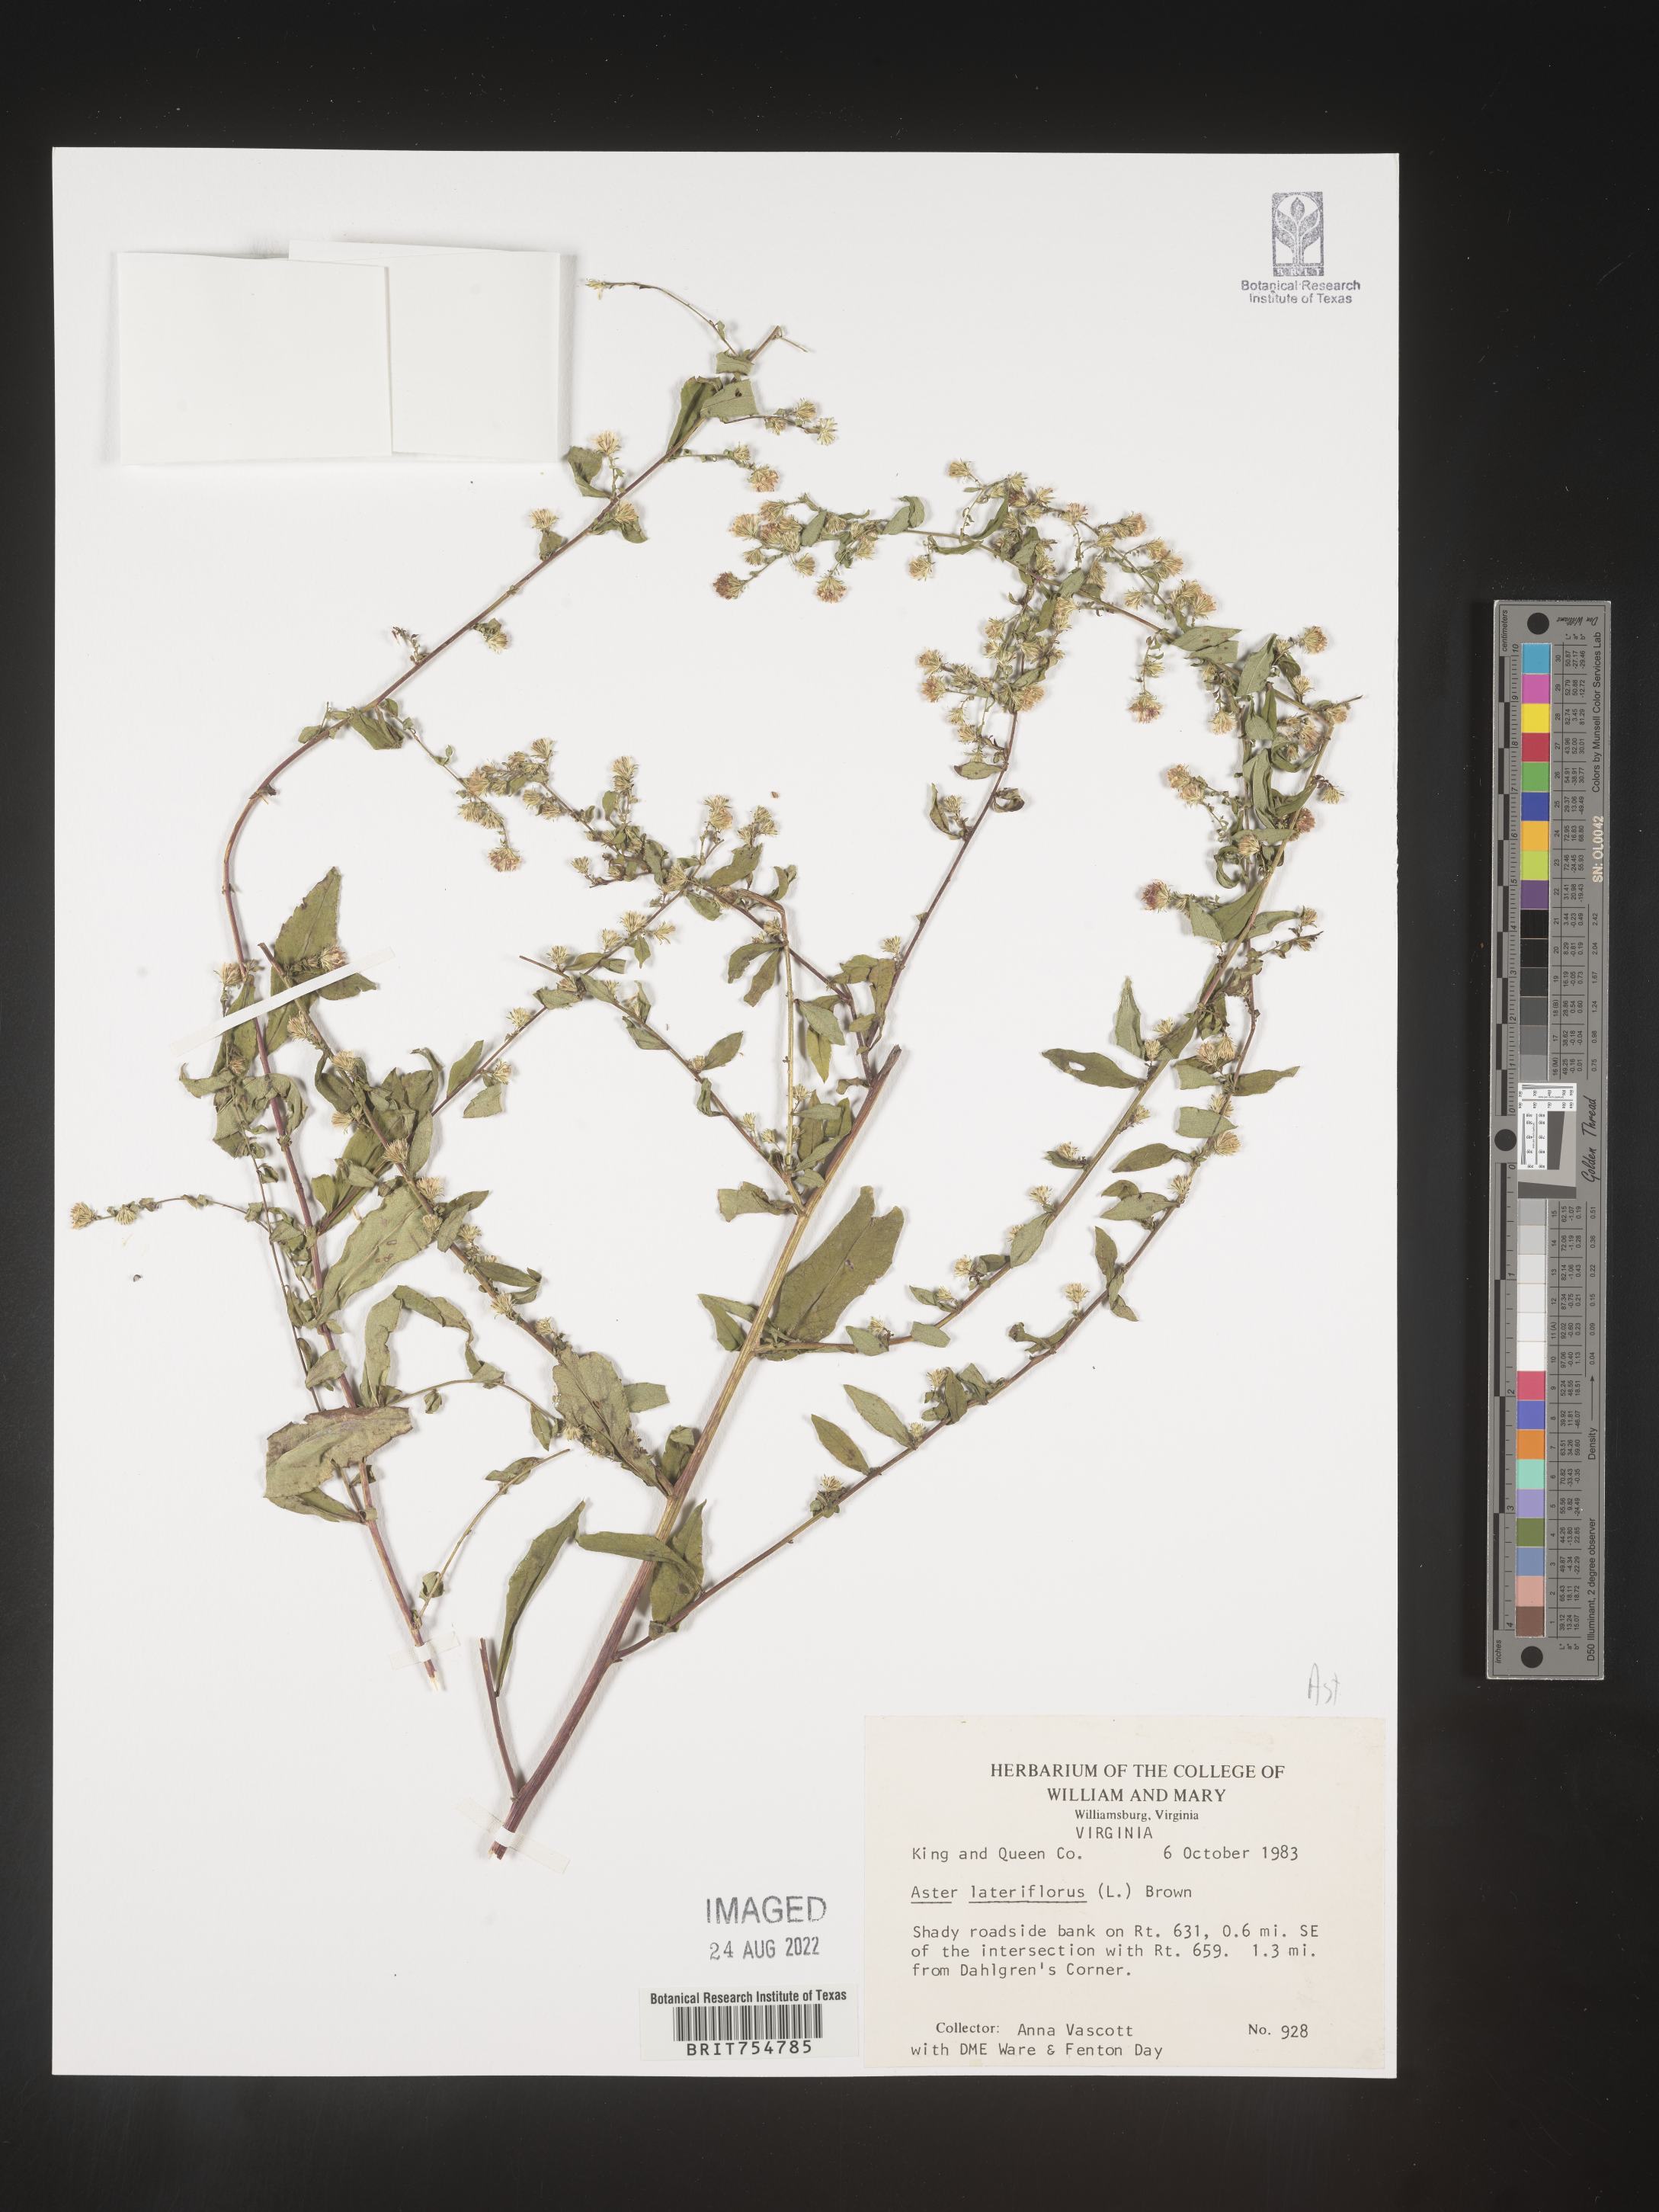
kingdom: Plantae
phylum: Tracheophyta
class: Magnoliopsida
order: Asterales
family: Asteraceae
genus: Symphyotrichum
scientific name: Symphyotrichum
